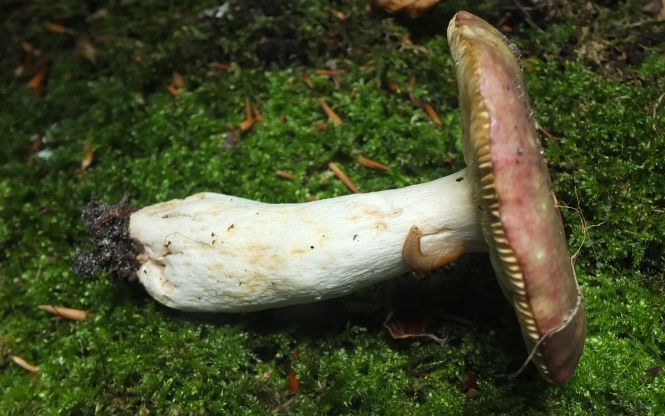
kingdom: Fungi
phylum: Basidiomycota
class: Agaricomycetes
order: Russulales
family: Russulaceae
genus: Russula
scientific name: Russula romellii
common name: romells skørhat
